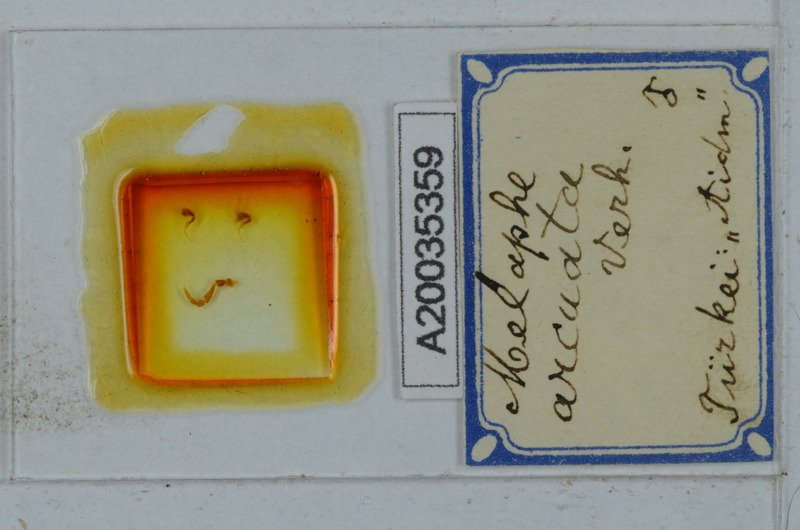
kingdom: Animalia
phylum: Arthropoda
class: Diplopoda
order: Polydesmida
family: Xystodesmidae
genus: Melaphe
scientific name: Melaphe vestita
